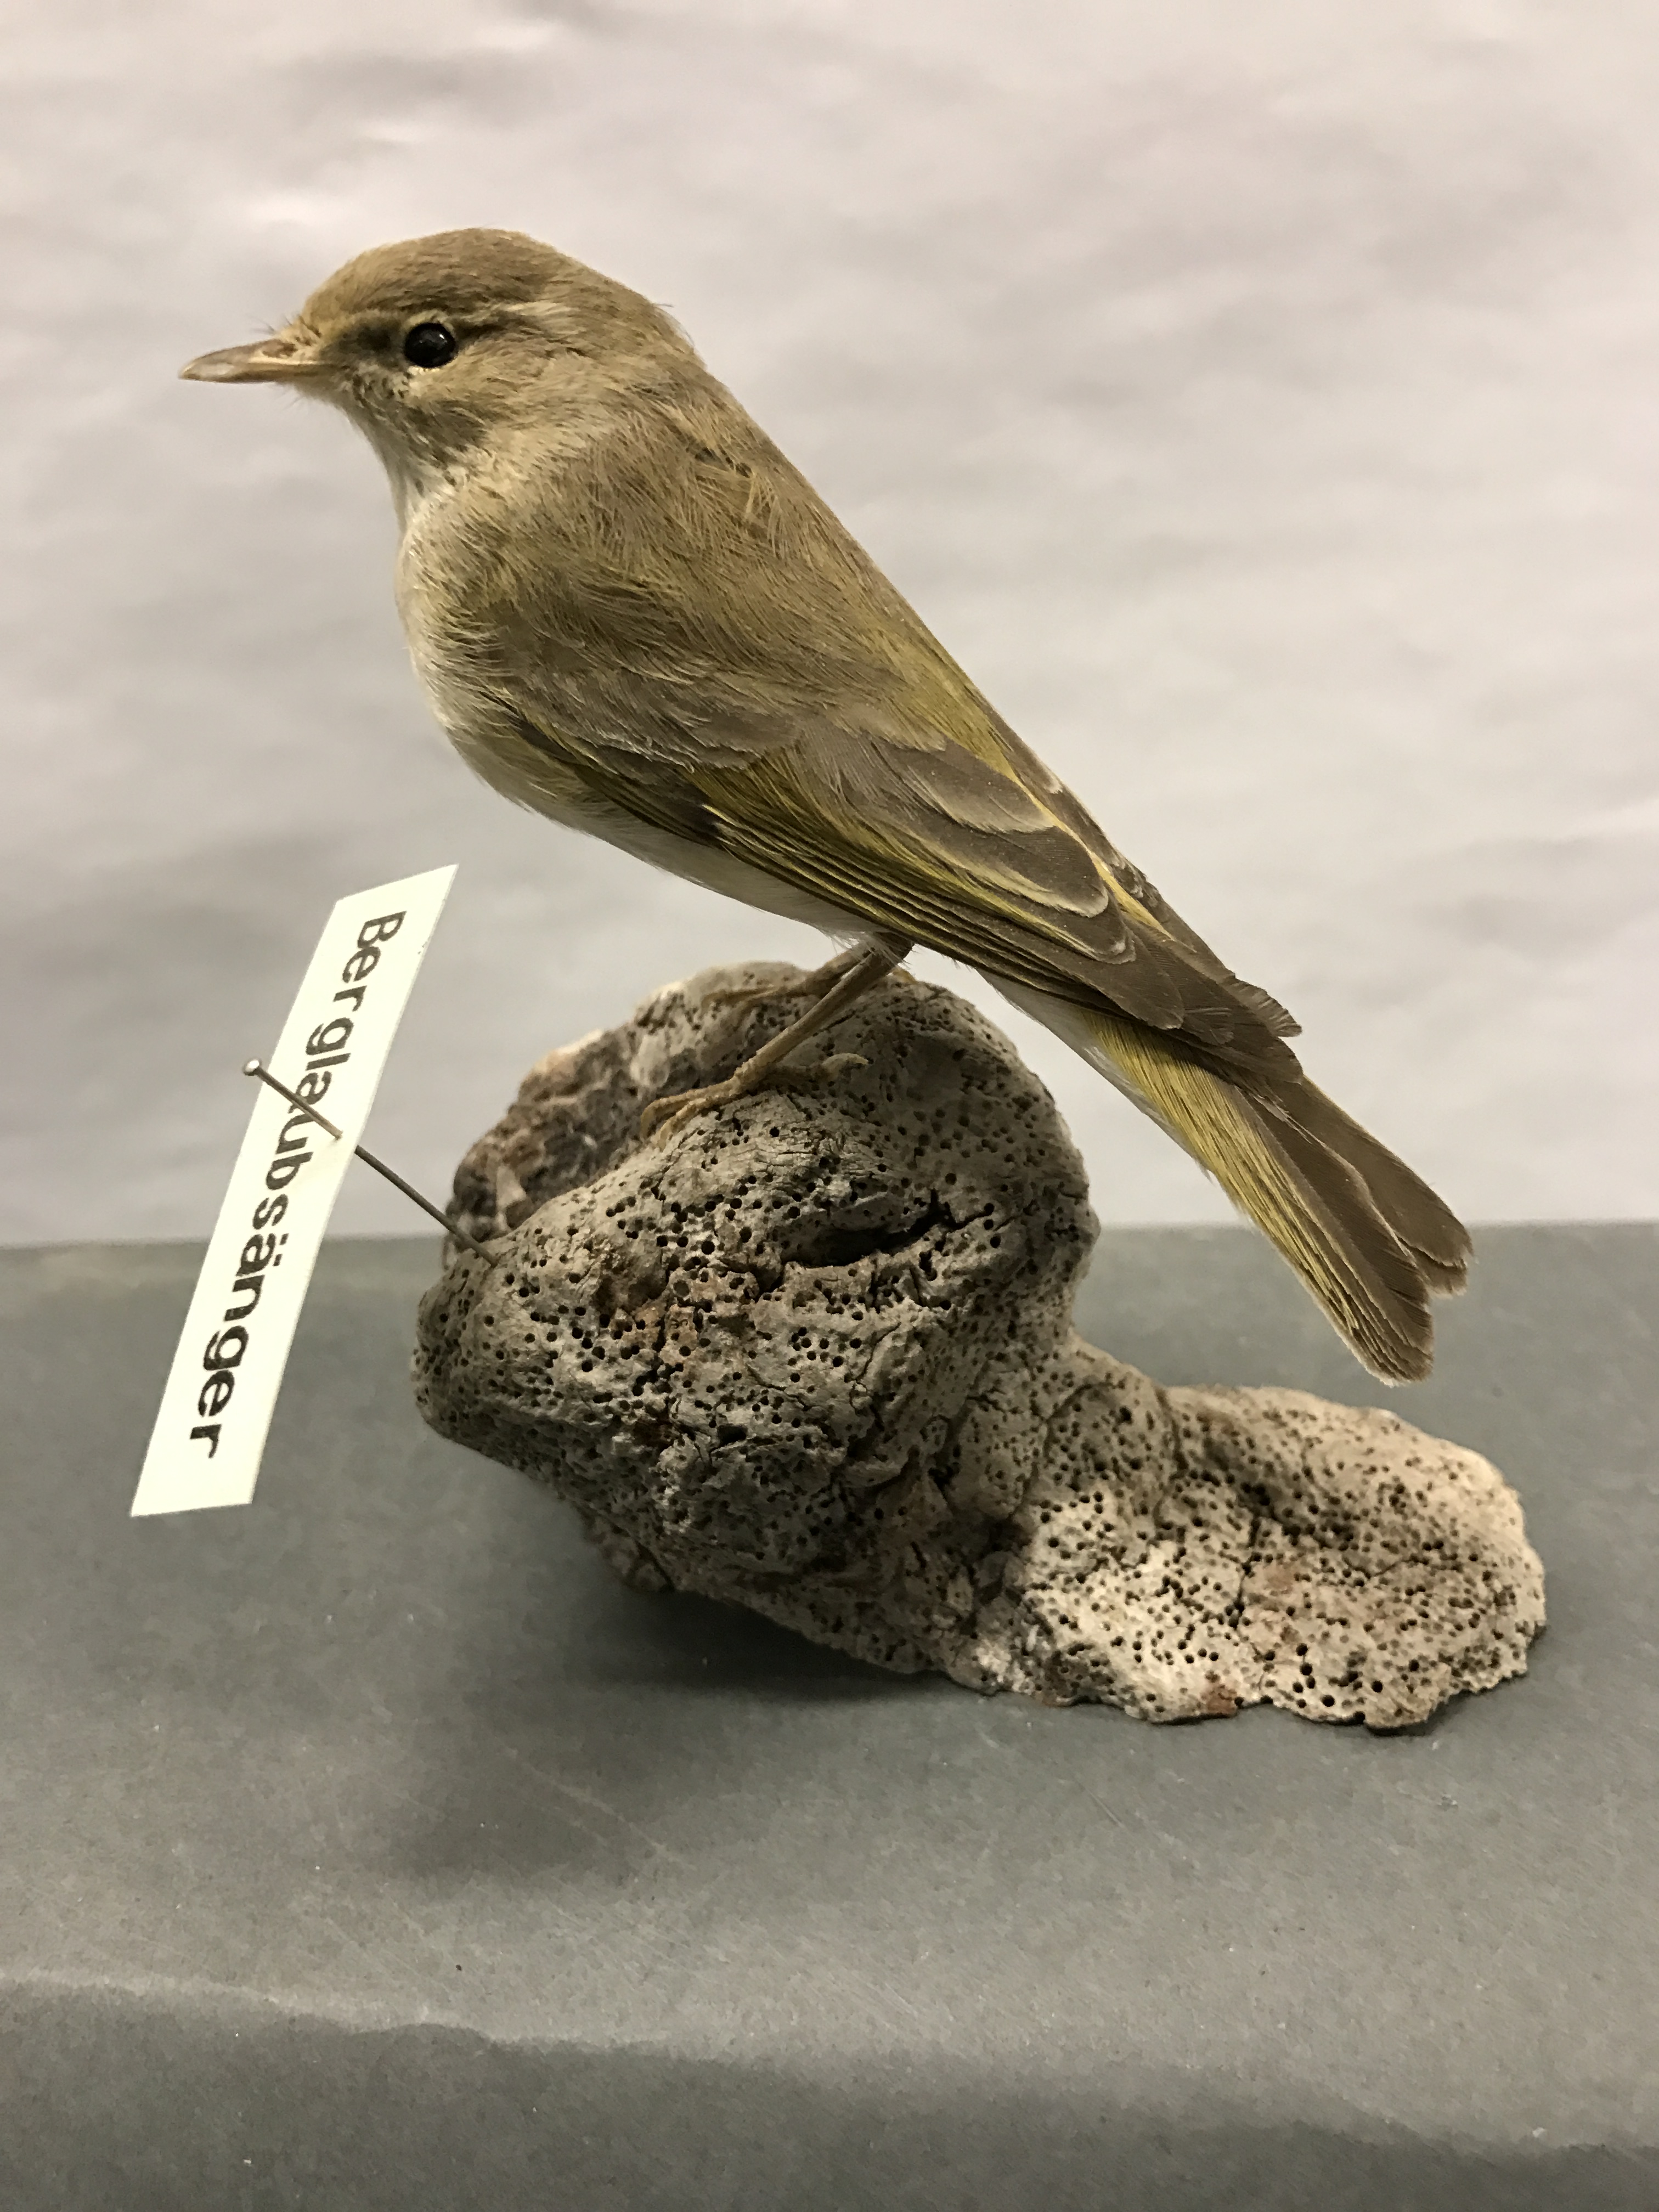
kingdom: Animalia
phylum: Chordata
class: Aves
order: Passeriformes
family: Phylloscopidae
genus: Phylloscopus
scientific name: Phylloscopus bonelli
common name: Western bonelli's warbler
